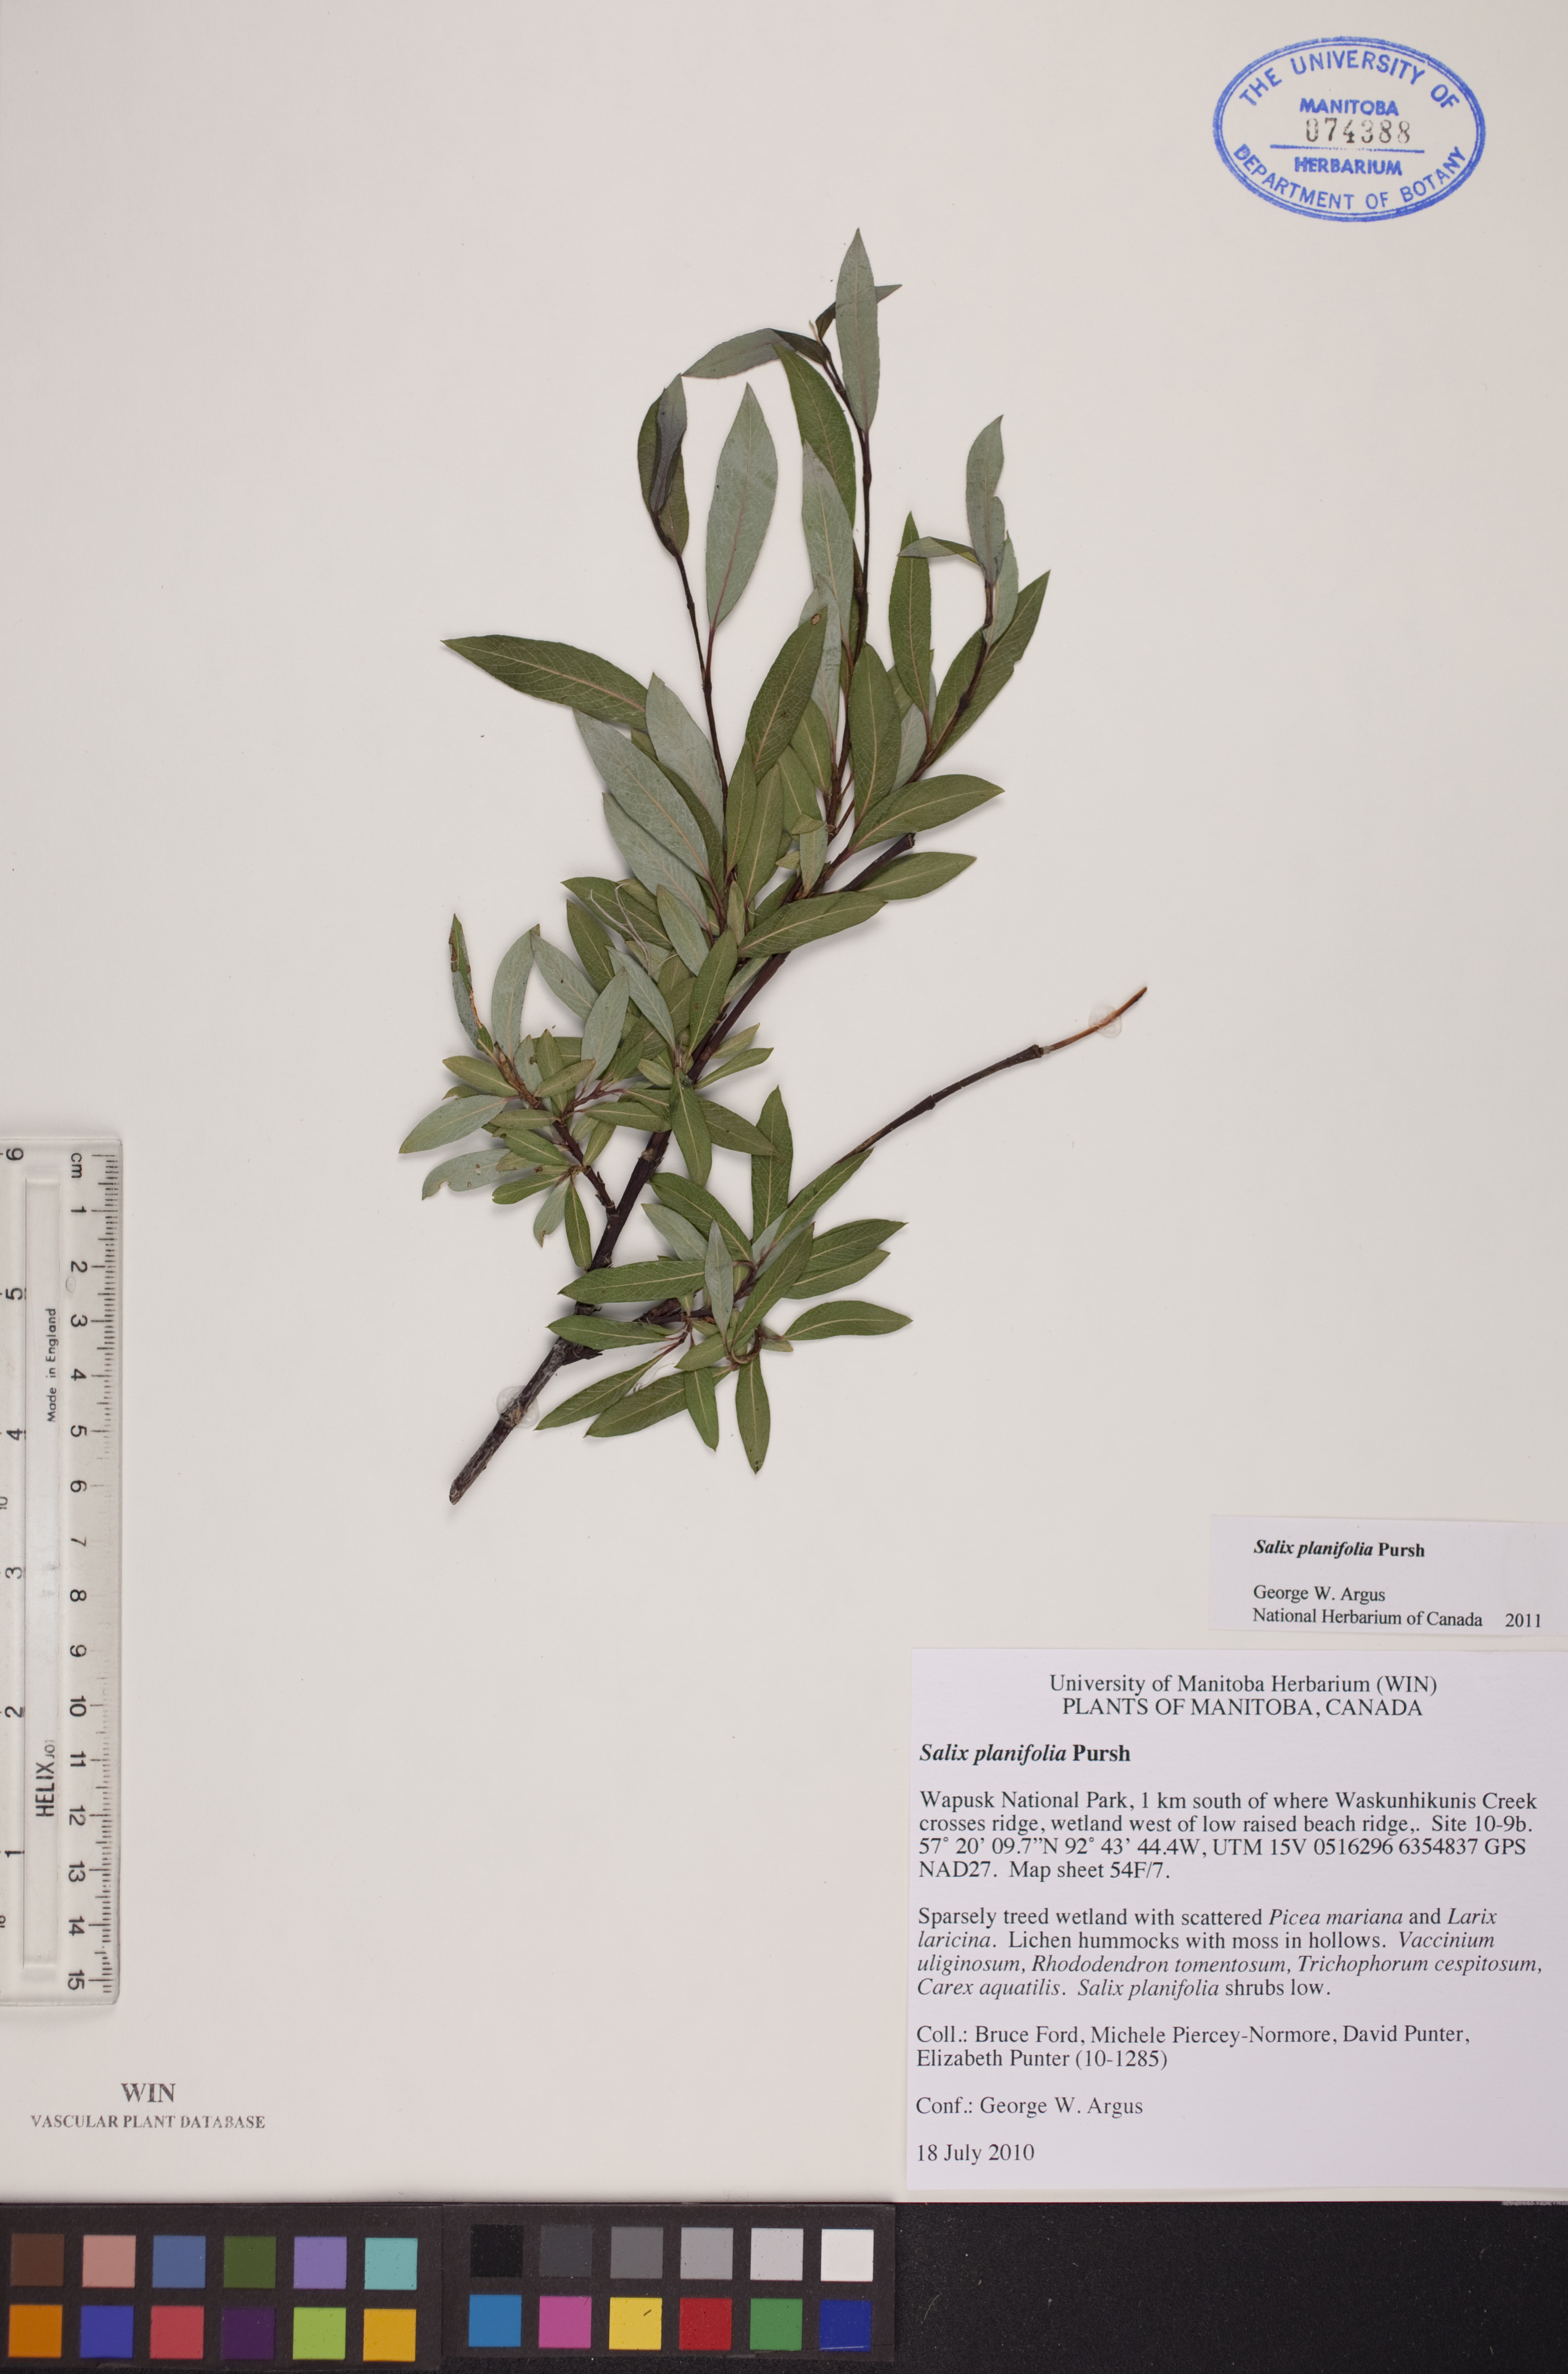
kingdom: Plantae
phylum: Tracheophyta
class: Magnoliopsida
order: Malpighiales
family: Salicaceae
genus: Salix
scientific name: Salix planifolia
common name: Mountain willow
